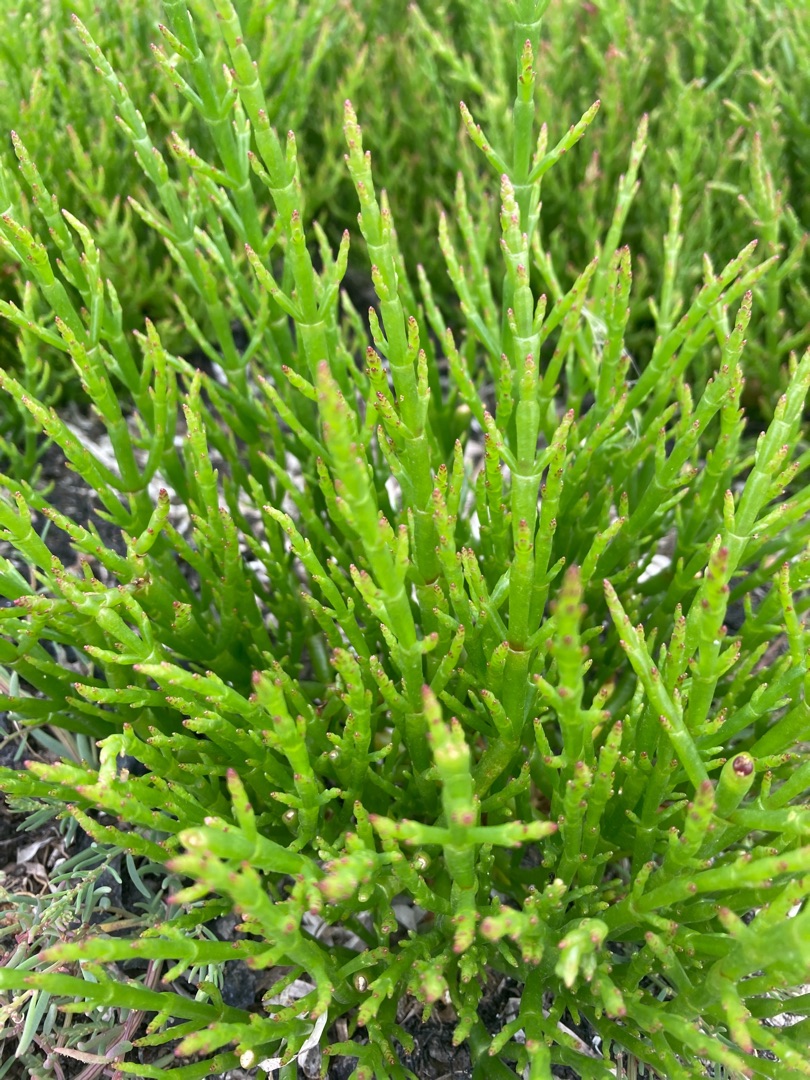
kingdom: Plantae
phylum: Tracheophyta
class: Magnoliopsida
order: Caryophyllales
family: Amaranthaceae
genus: Salicornia
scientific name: Salicornia europaea
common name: Almindelig salturt
